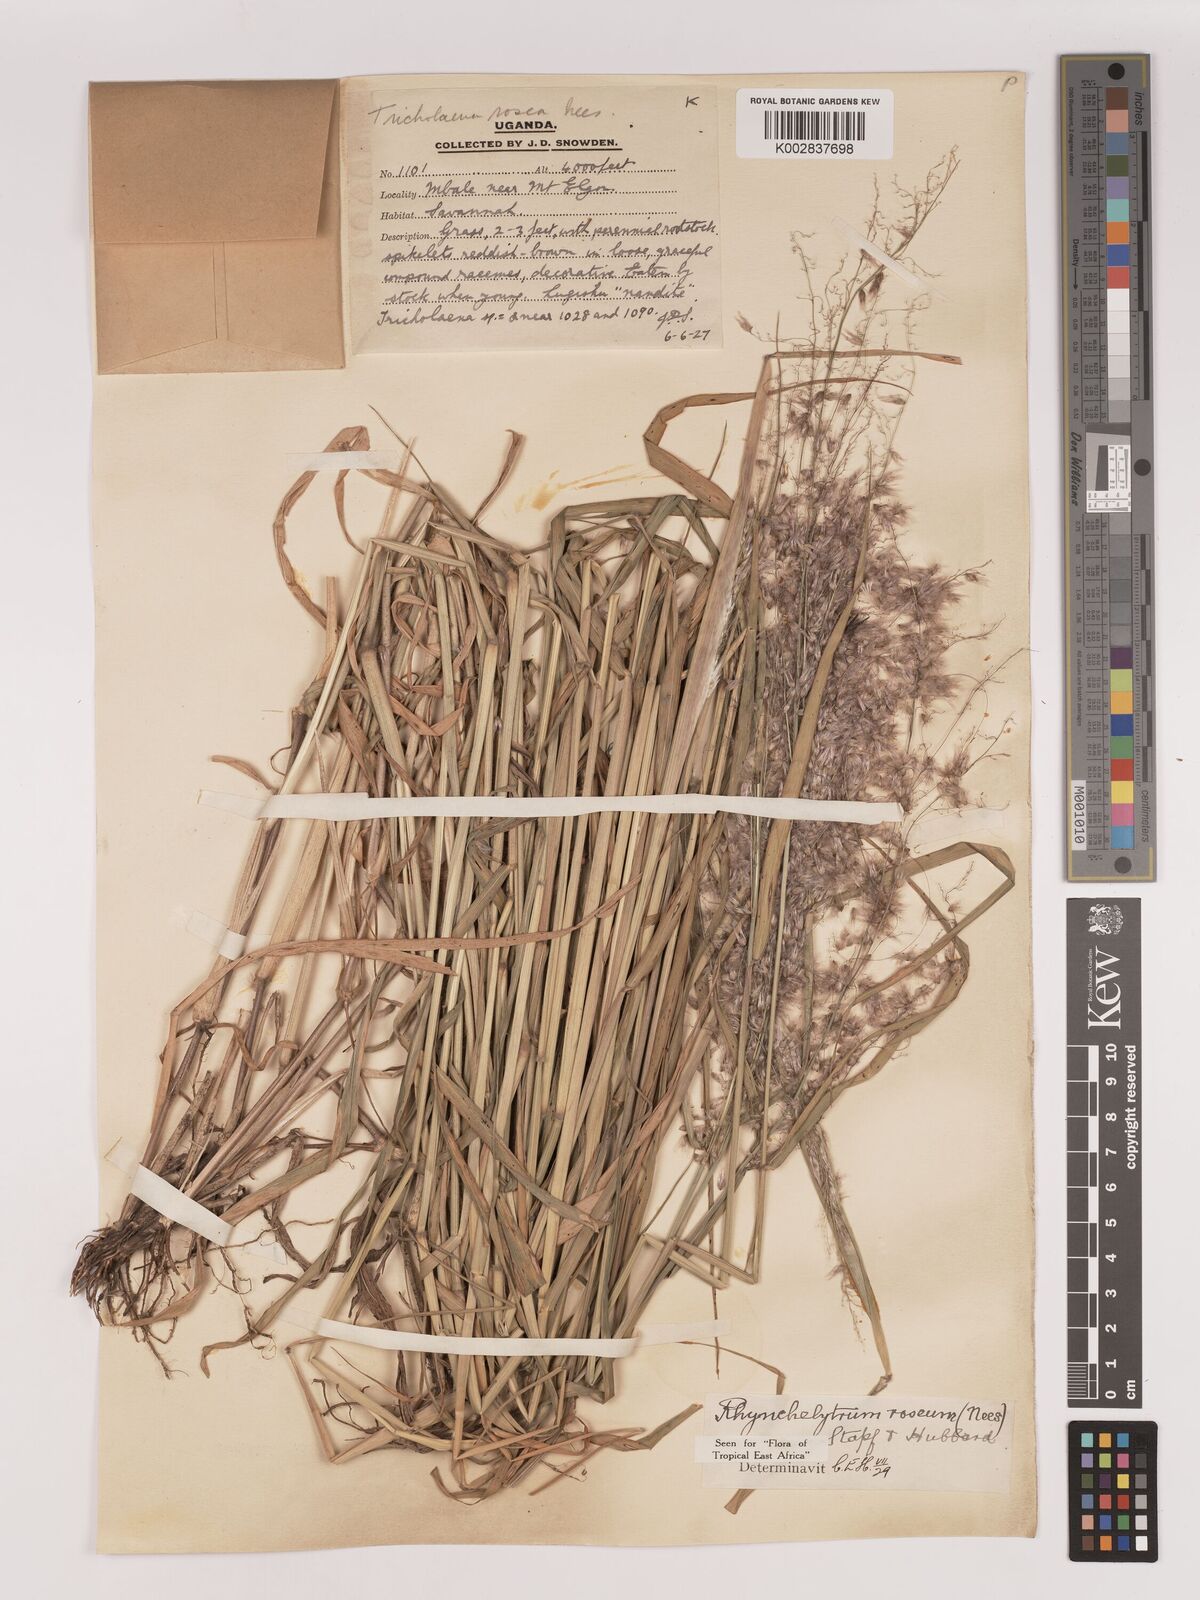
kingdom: Plantae
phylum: Tracheophyta
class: Liliopsida
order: Poales
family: Poaceae
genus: Melinis
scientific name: Melinis repens
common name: Rose natal grass
